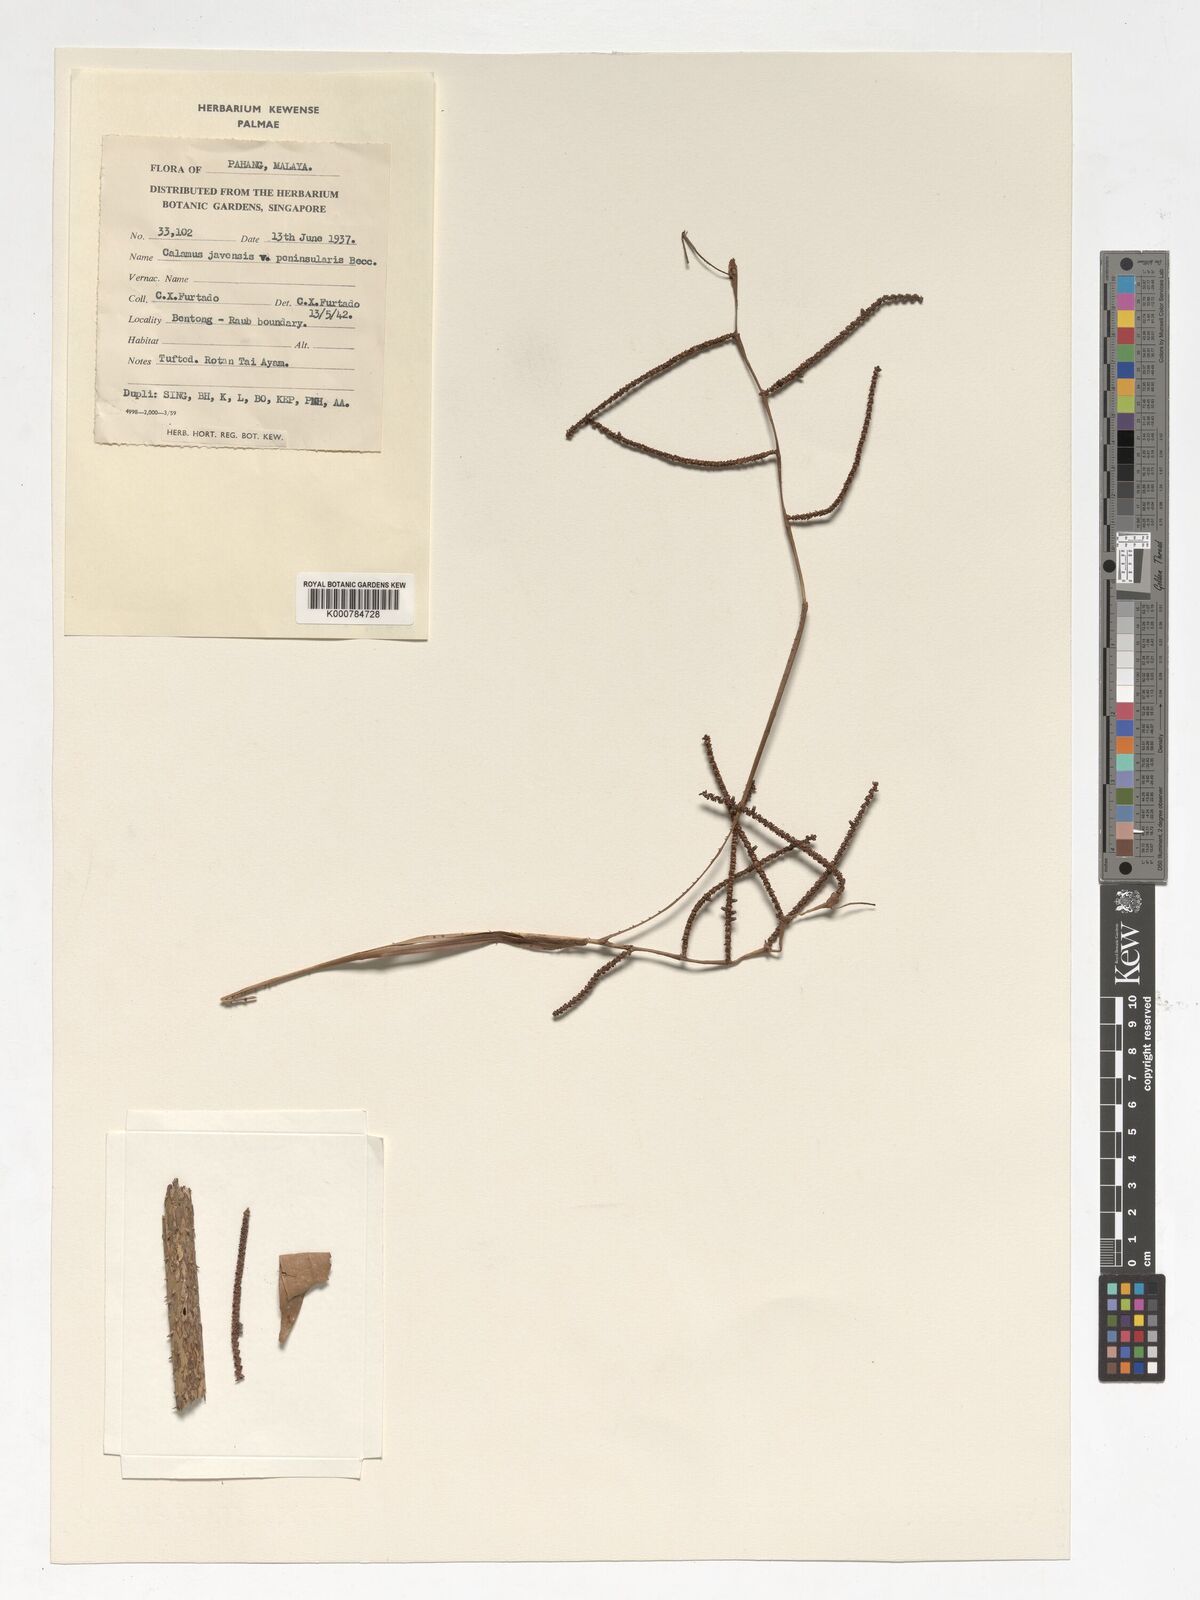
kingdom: Plantae
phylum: Tracheophyta
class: Liliopsida
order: Arecales
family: Arecaceae
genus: Calamus
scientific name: Calamus javensis
